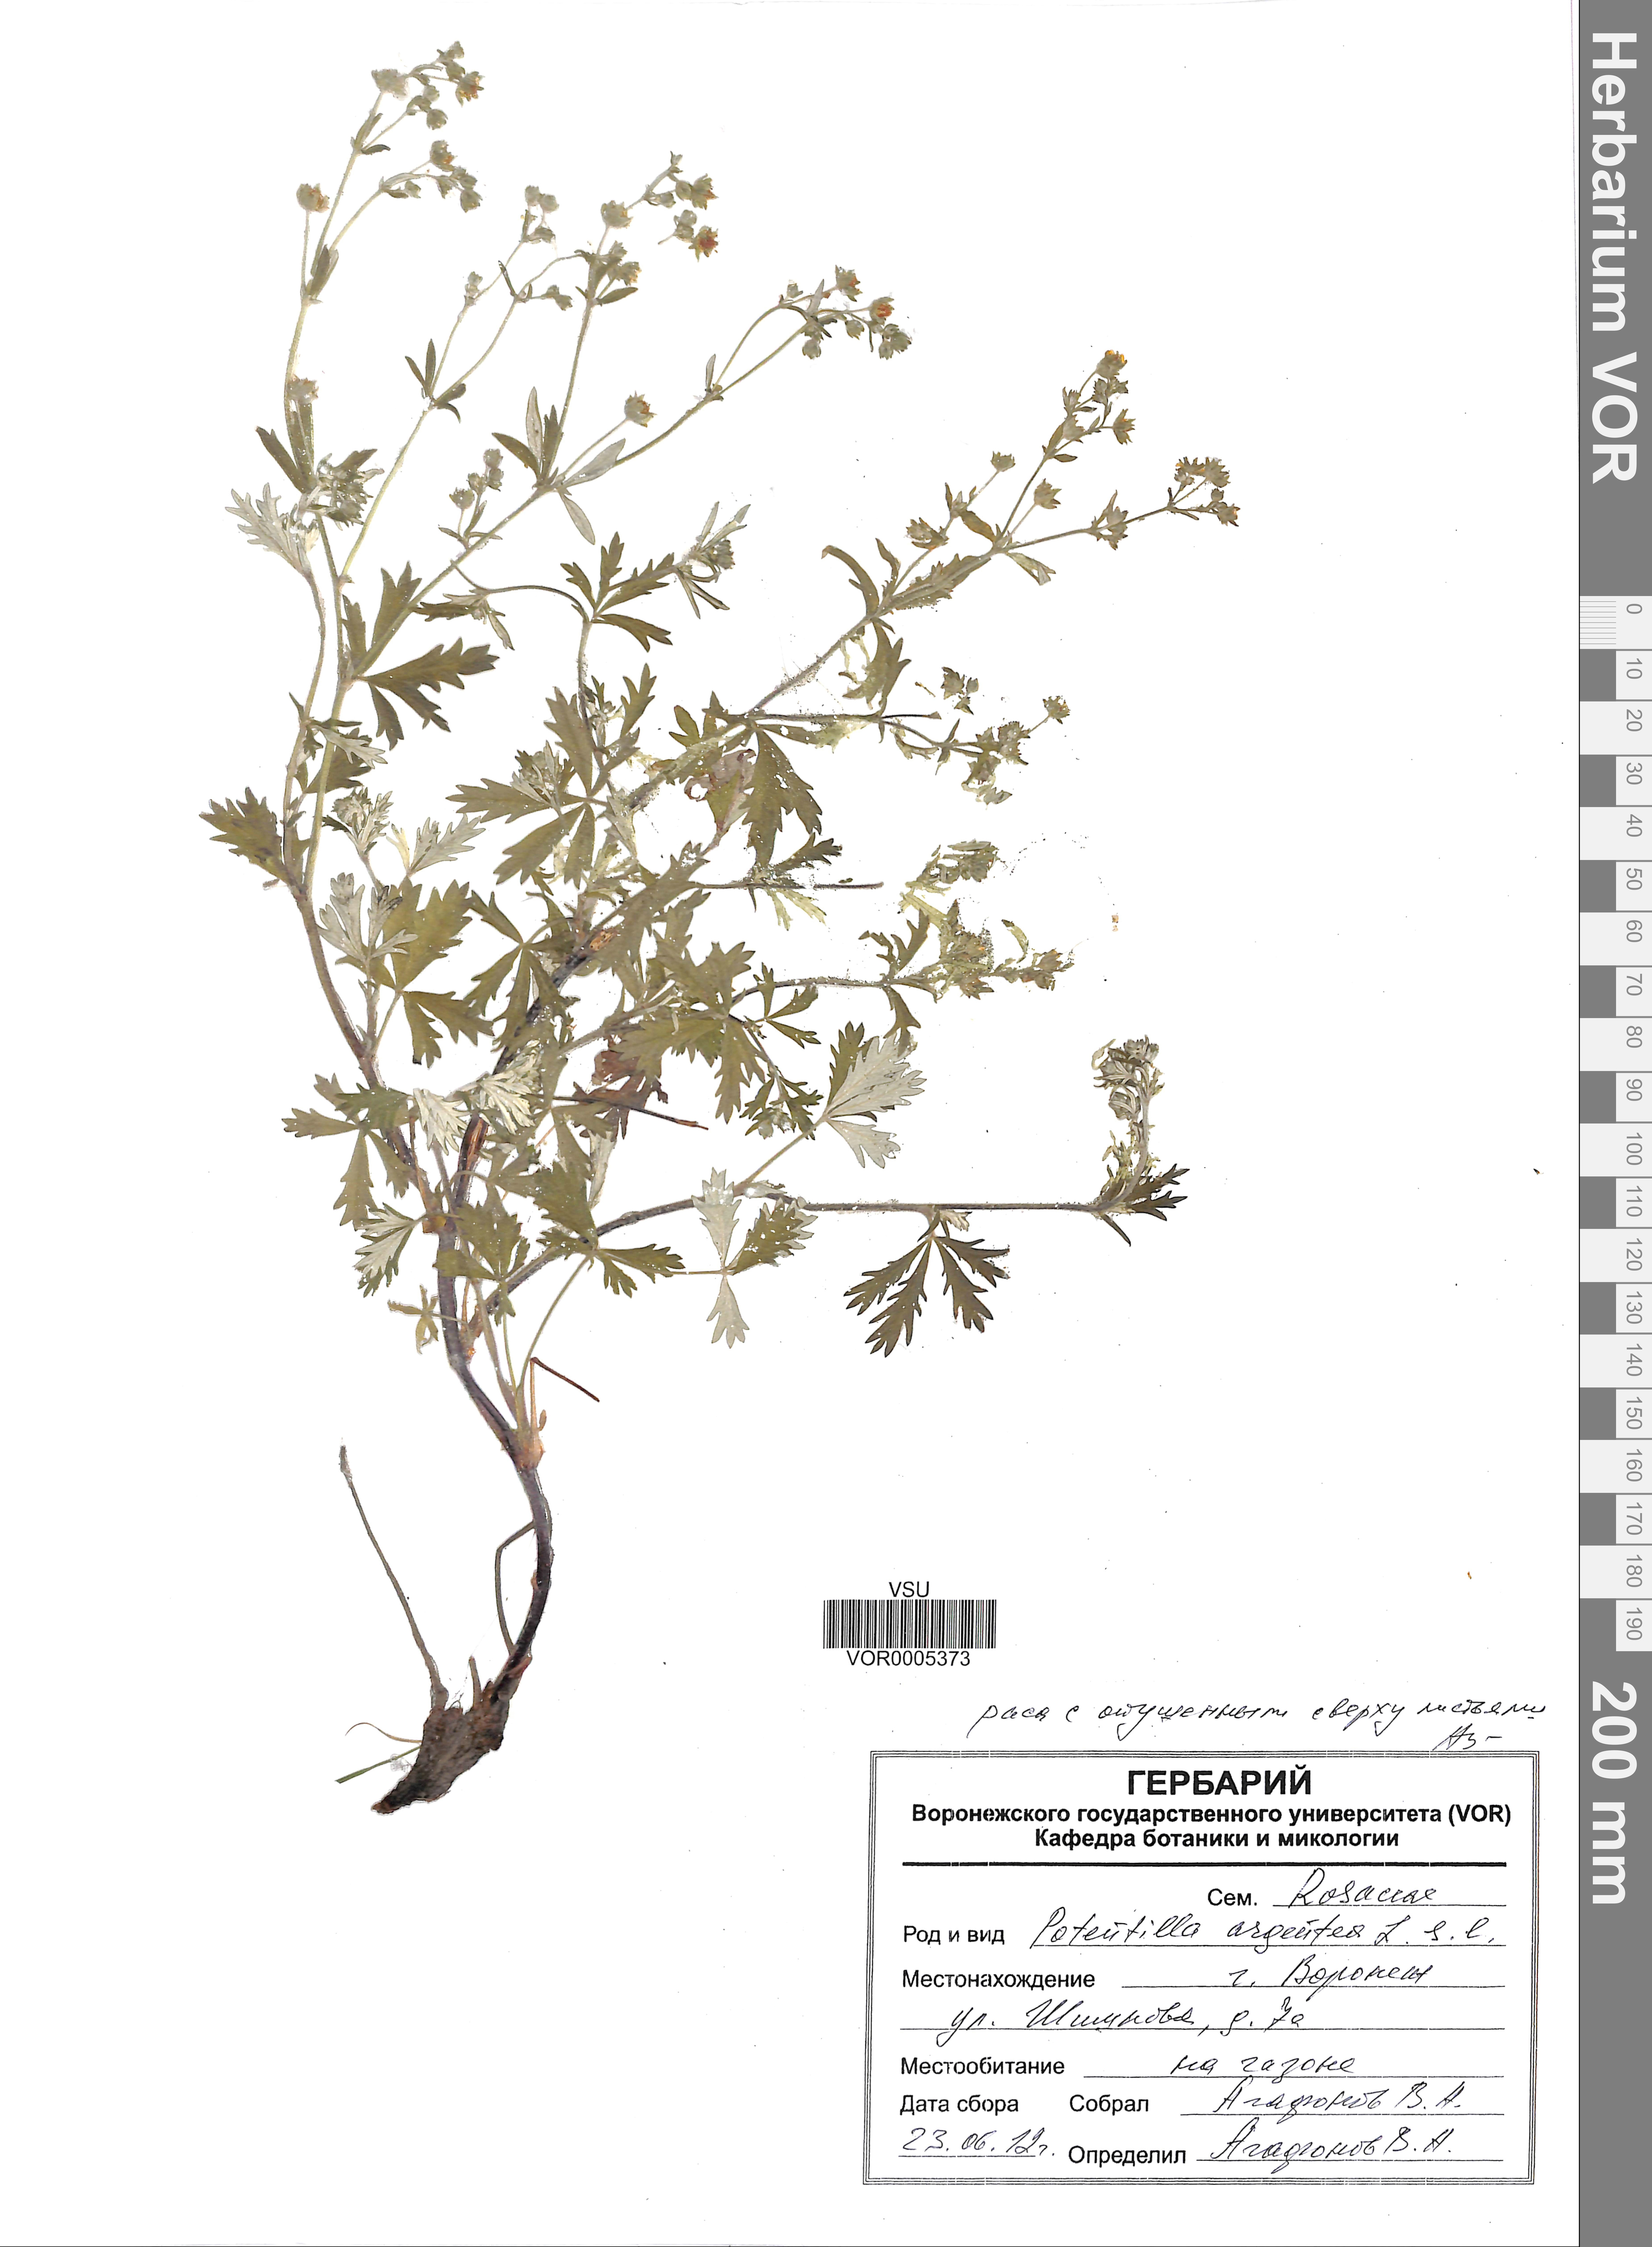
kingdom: Plantae
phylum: Tracheophyta
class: Magnoliopsida
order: Rosales
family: Rosaceae
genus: Potentilla
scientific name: Potentilla argentea
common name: Hoary cinquefoil
